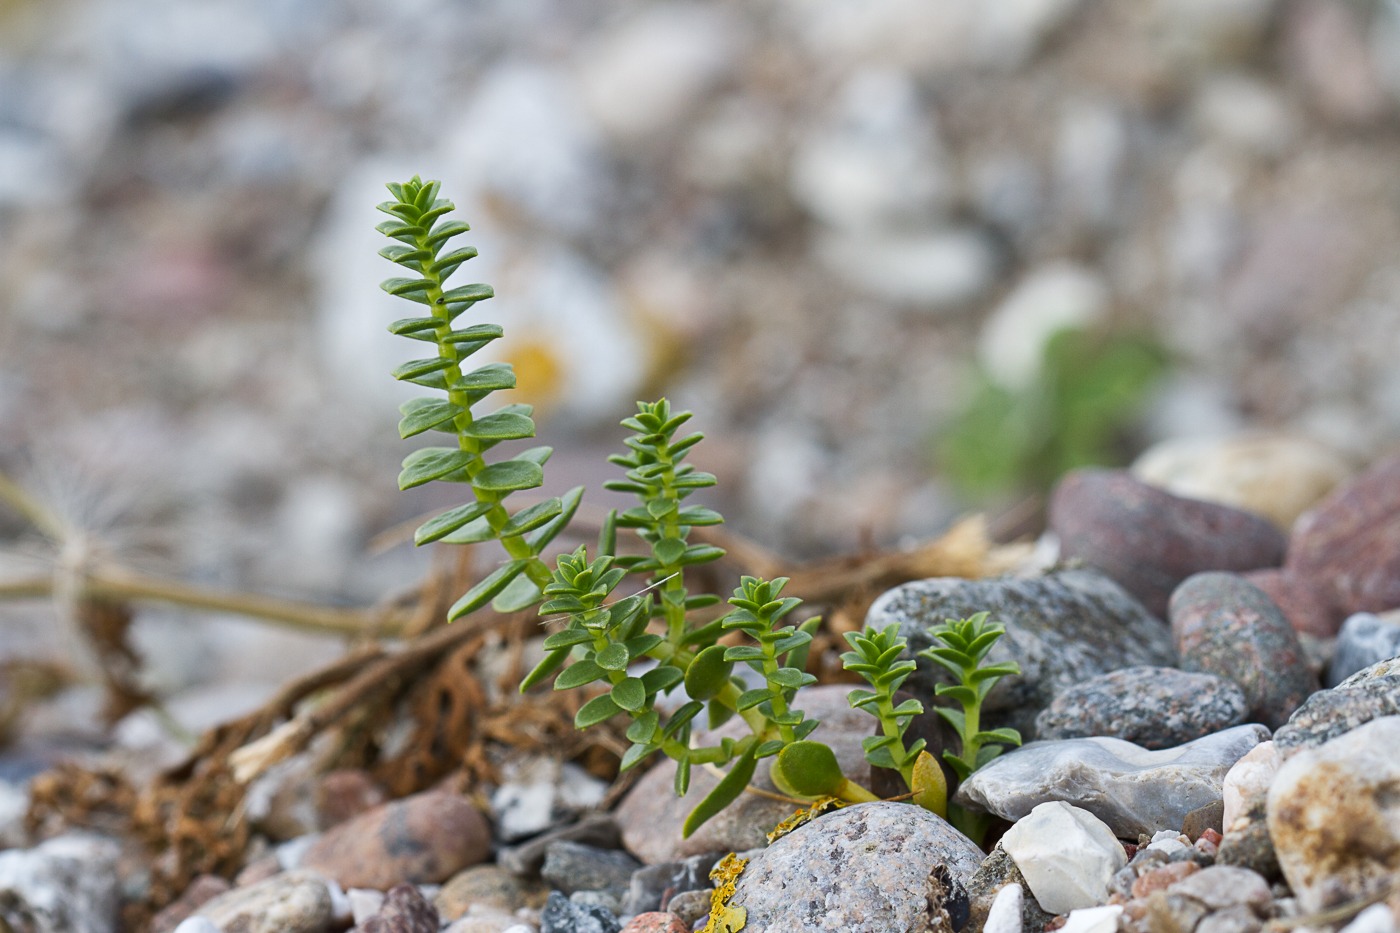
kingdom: Plantae
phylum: Tracheophyta
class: Magnoliopsida
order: Caryophyllales
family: Caryophyllaceae
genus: Honckenya
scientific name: Honckenya peploides
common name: Strandarve
